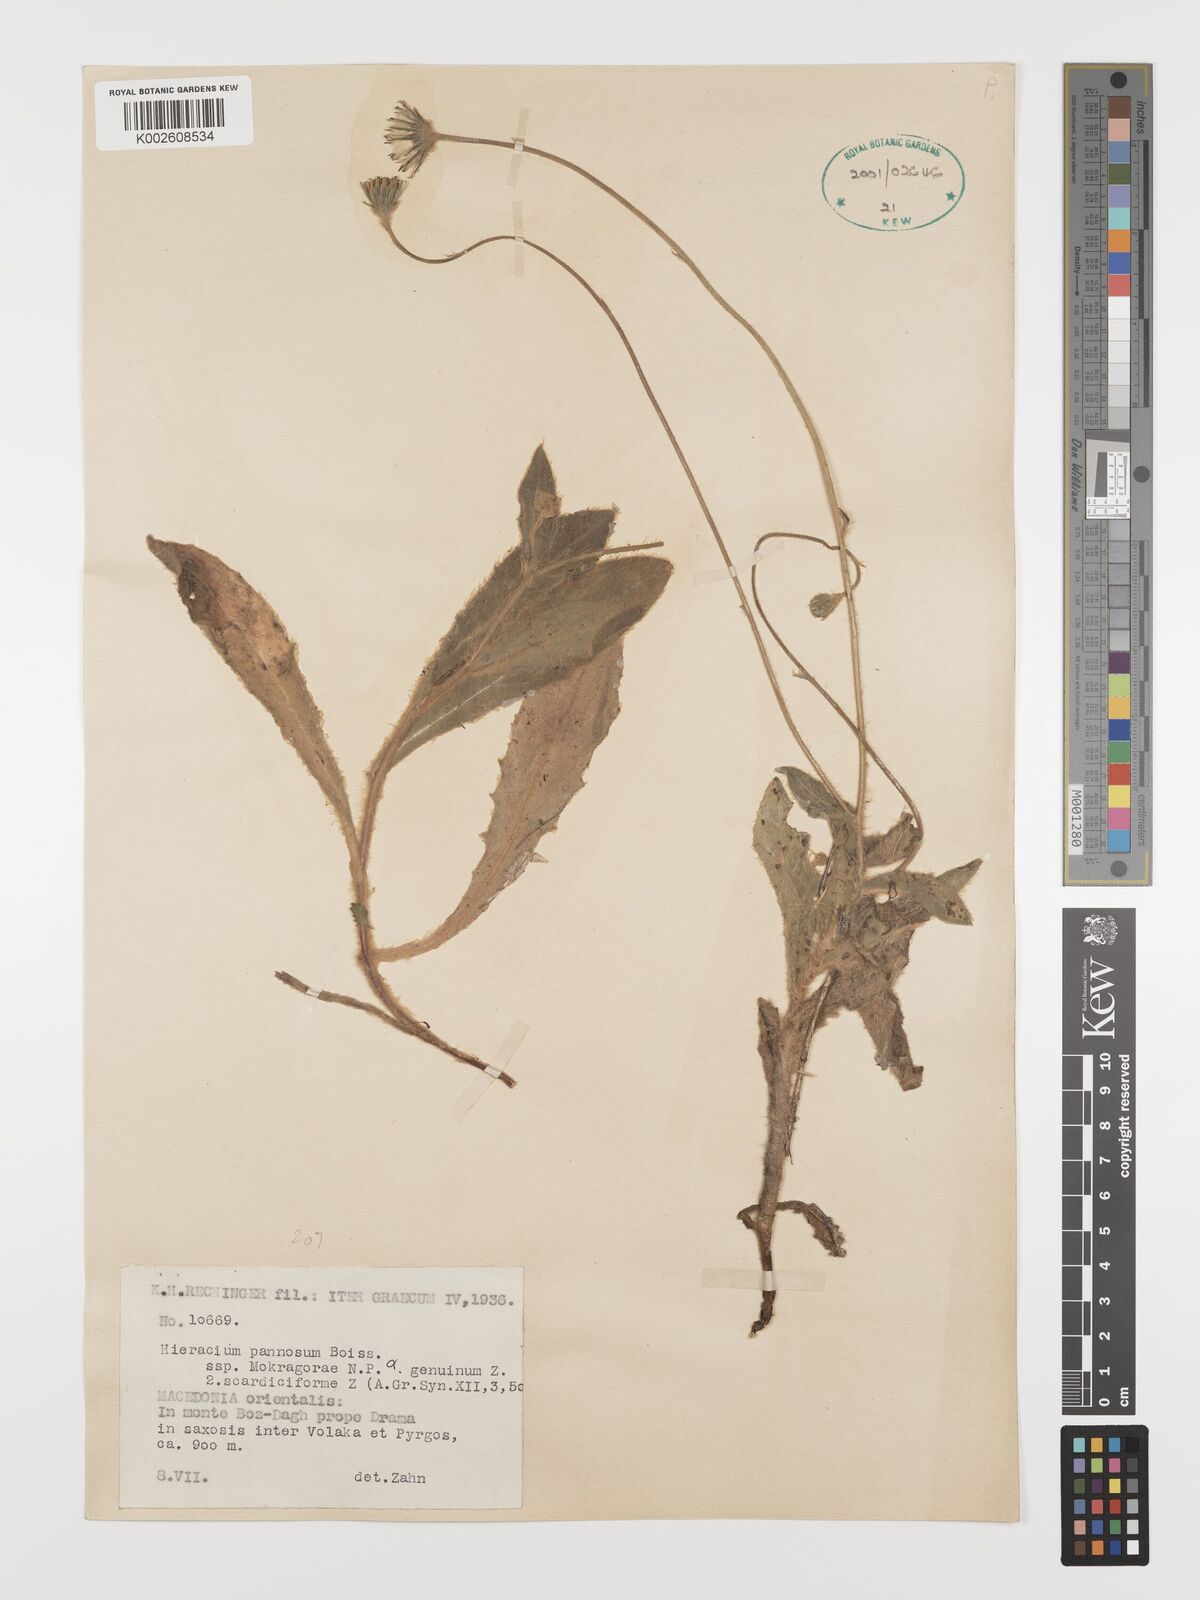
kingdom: Plantae
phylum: Tracheophyta
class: Magnoliopsida
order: Asterales
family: Asteraceae
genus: Hieracium
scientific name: Hieracium pannosum
